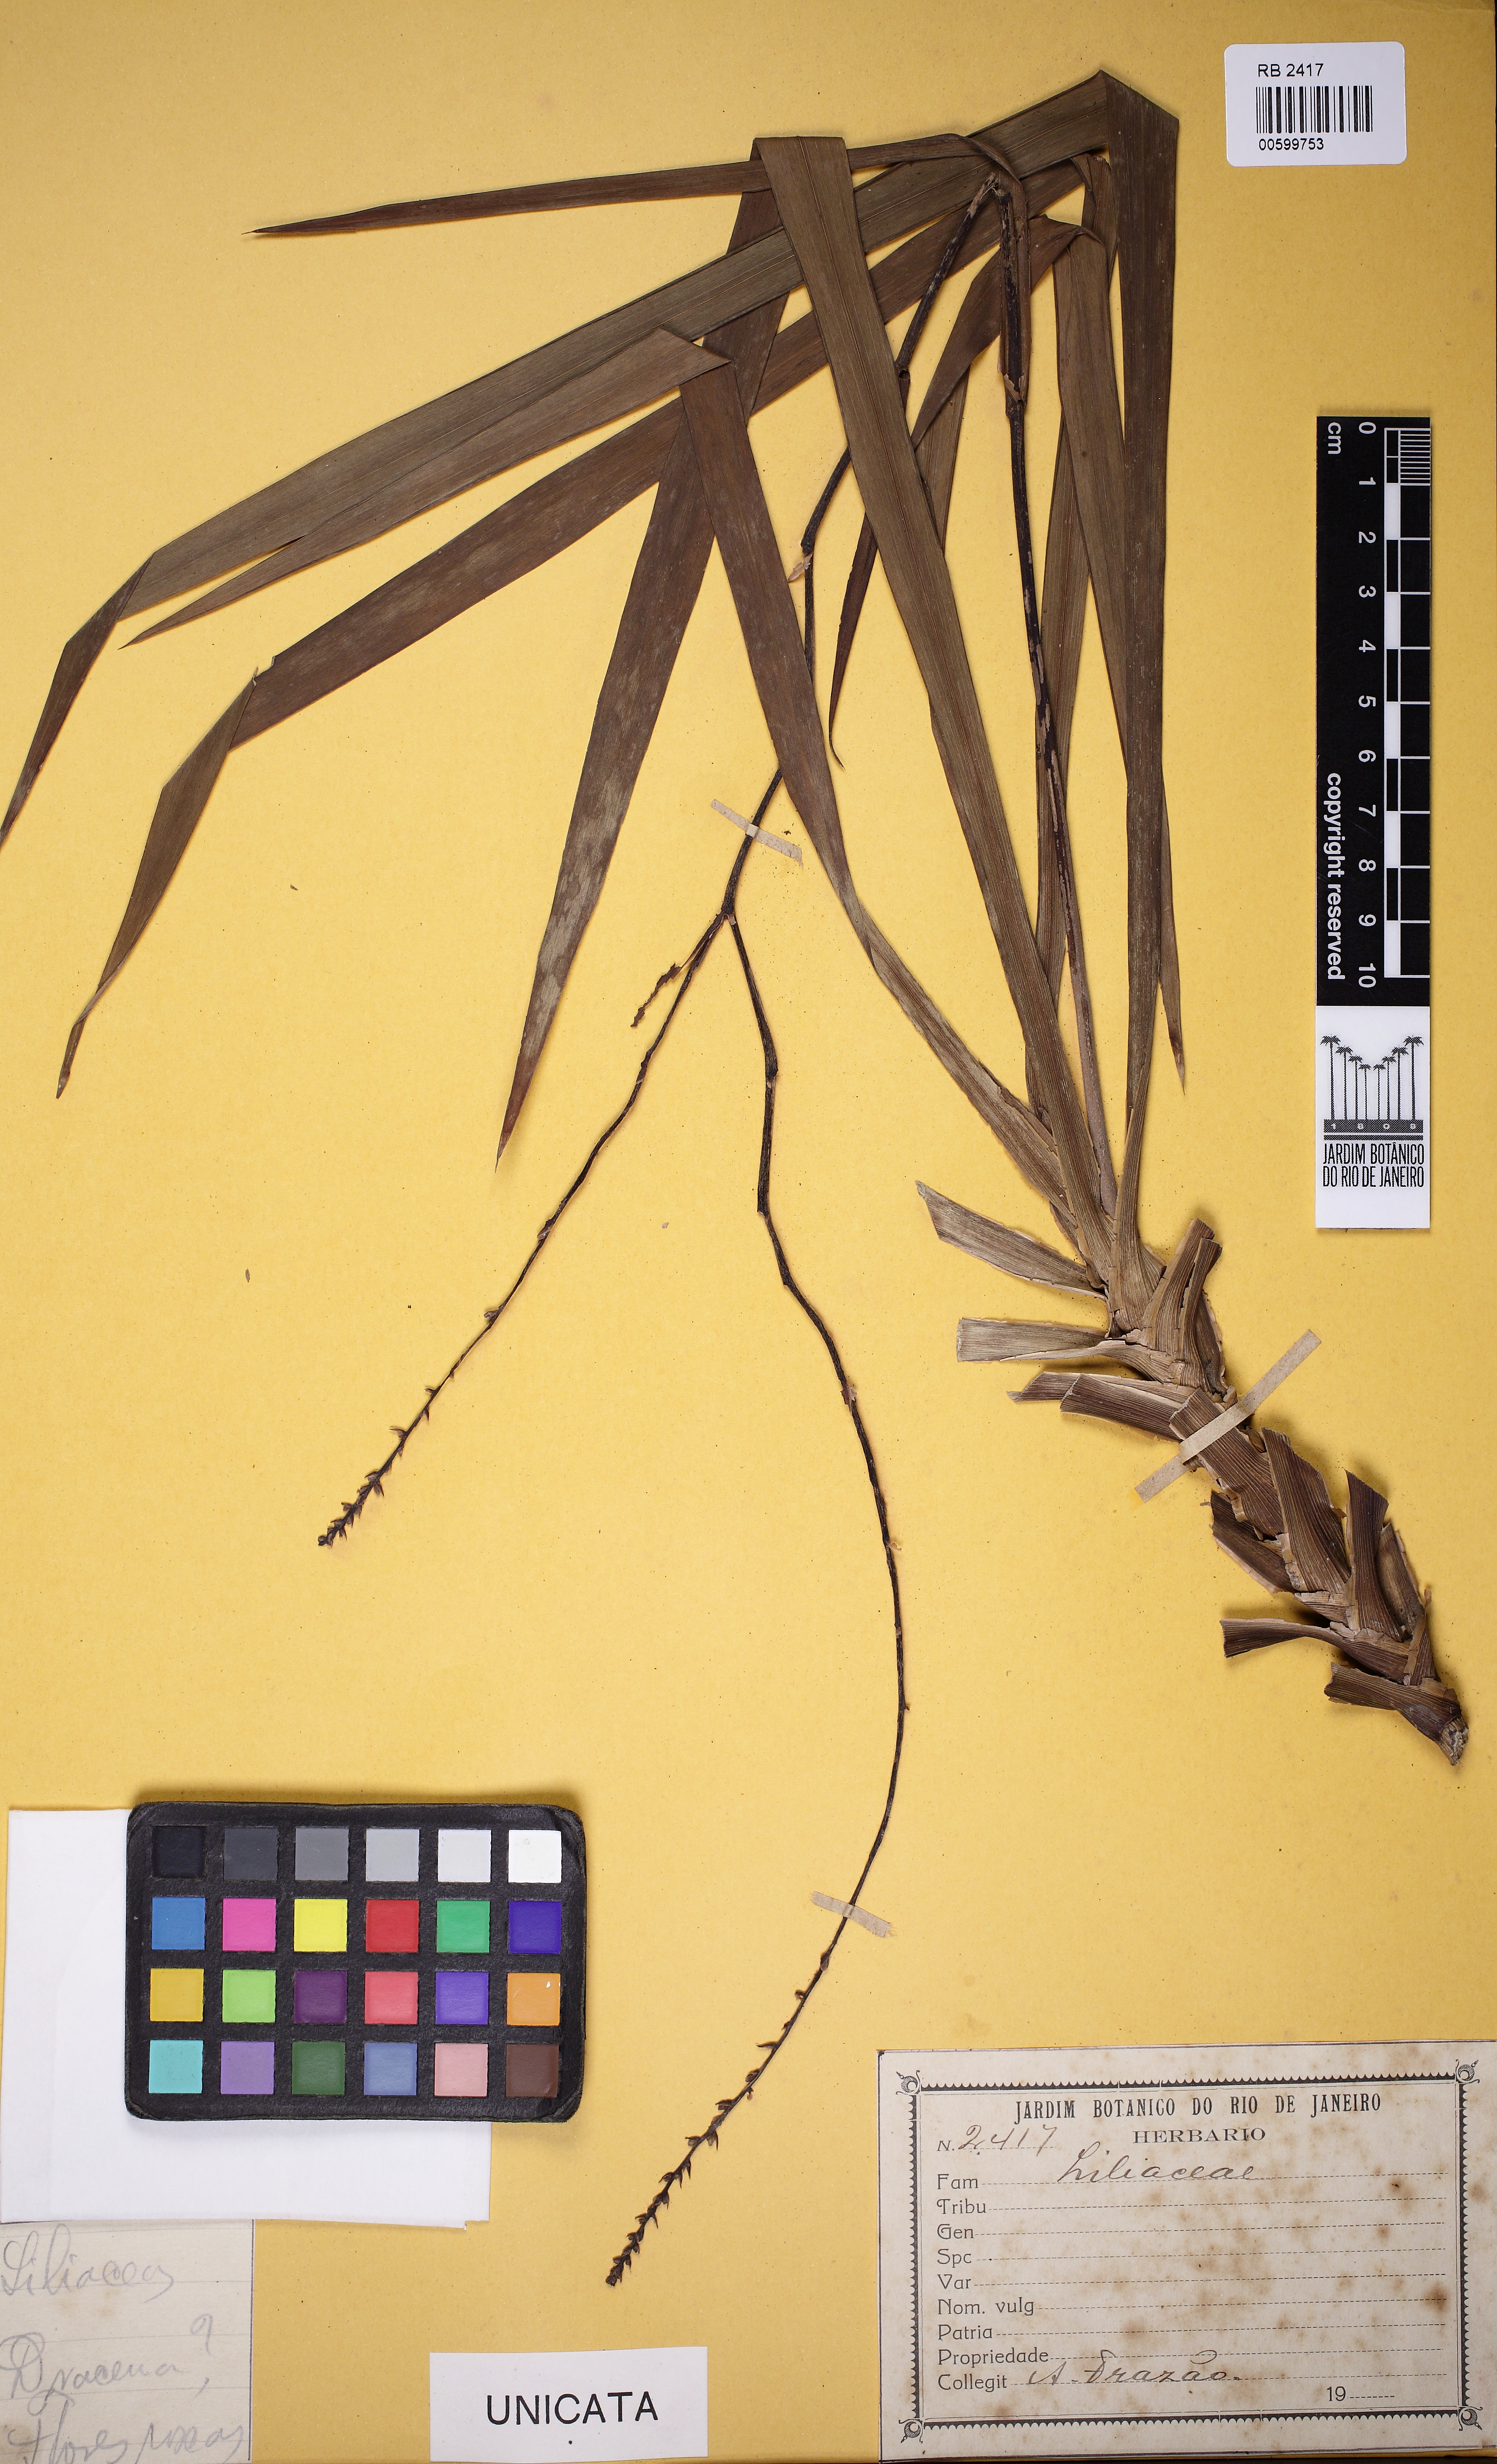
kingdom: Plantae
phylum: Tracheophyta
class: Liliopsida
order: Asparagales
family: Asparagaceae
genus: Dracaena
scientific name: Dracaena
